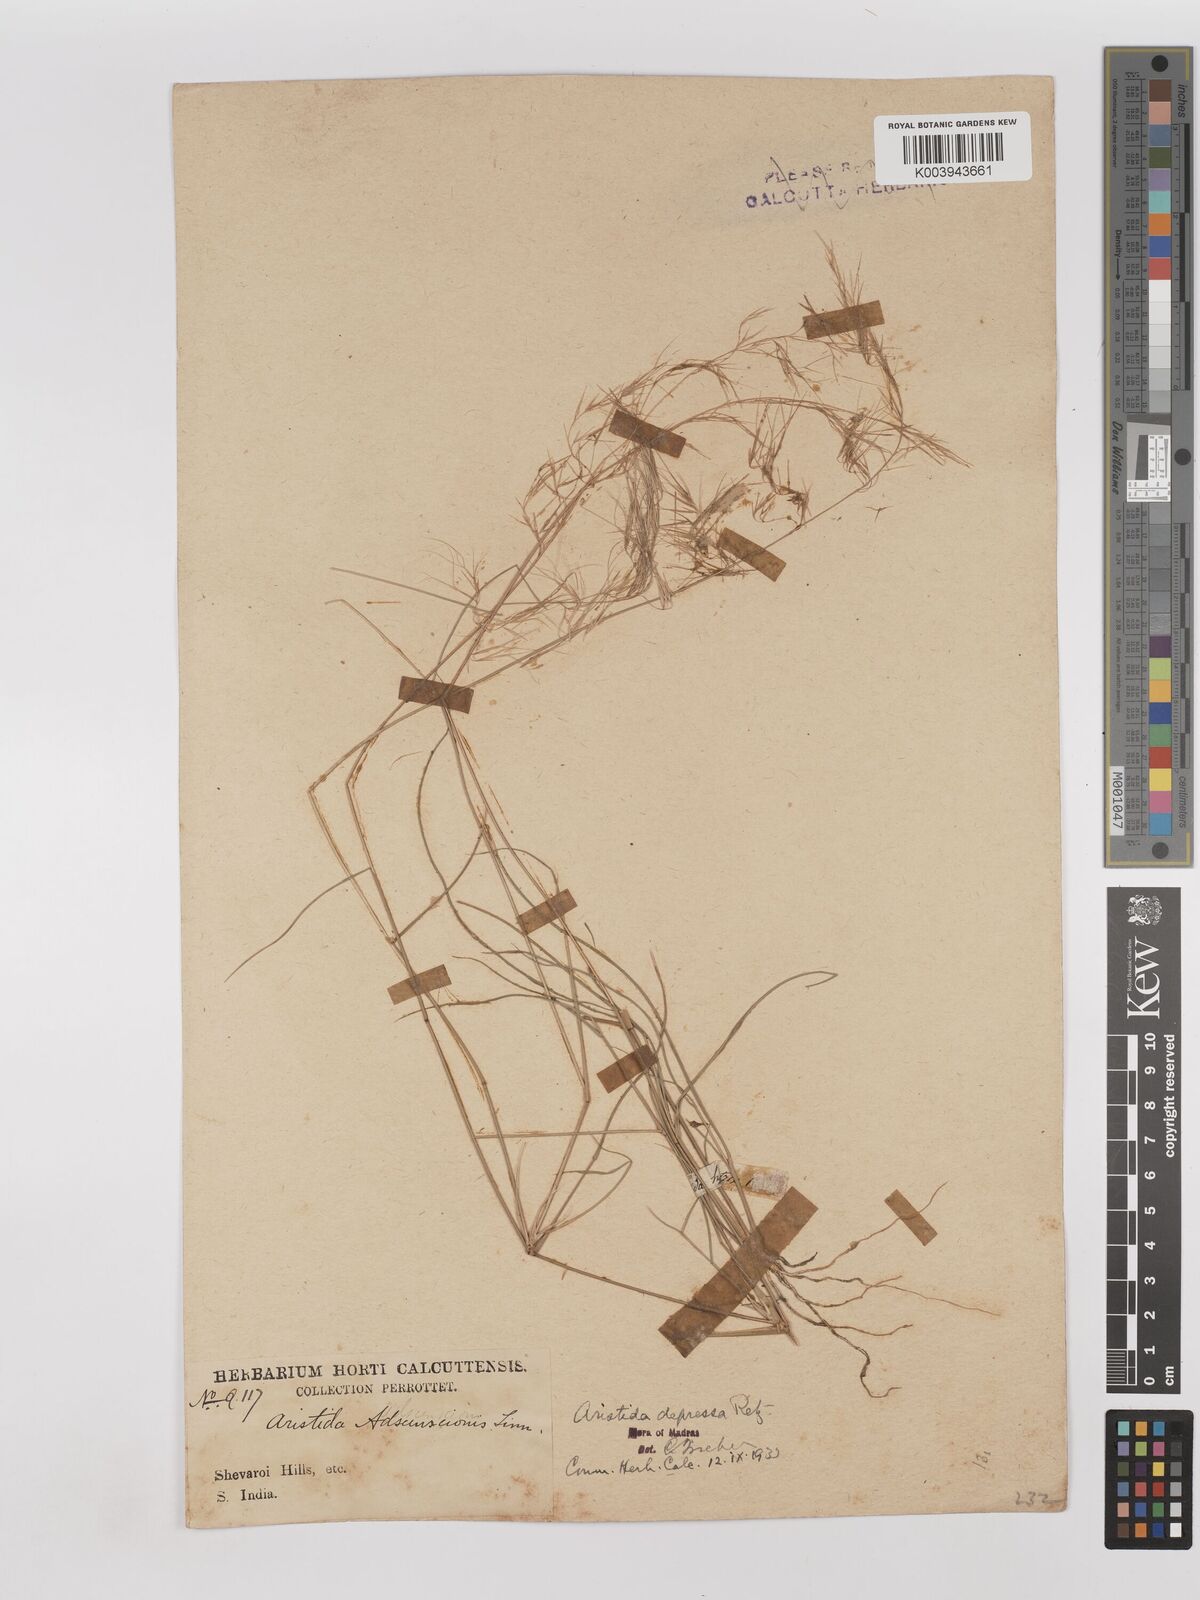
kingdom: Plantae
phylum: Tracheophyta
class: Liliopsida
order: Poales
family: Poaceae
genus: Aristida
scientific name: Aristida adscensionis
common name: Sixweeks threeawn
